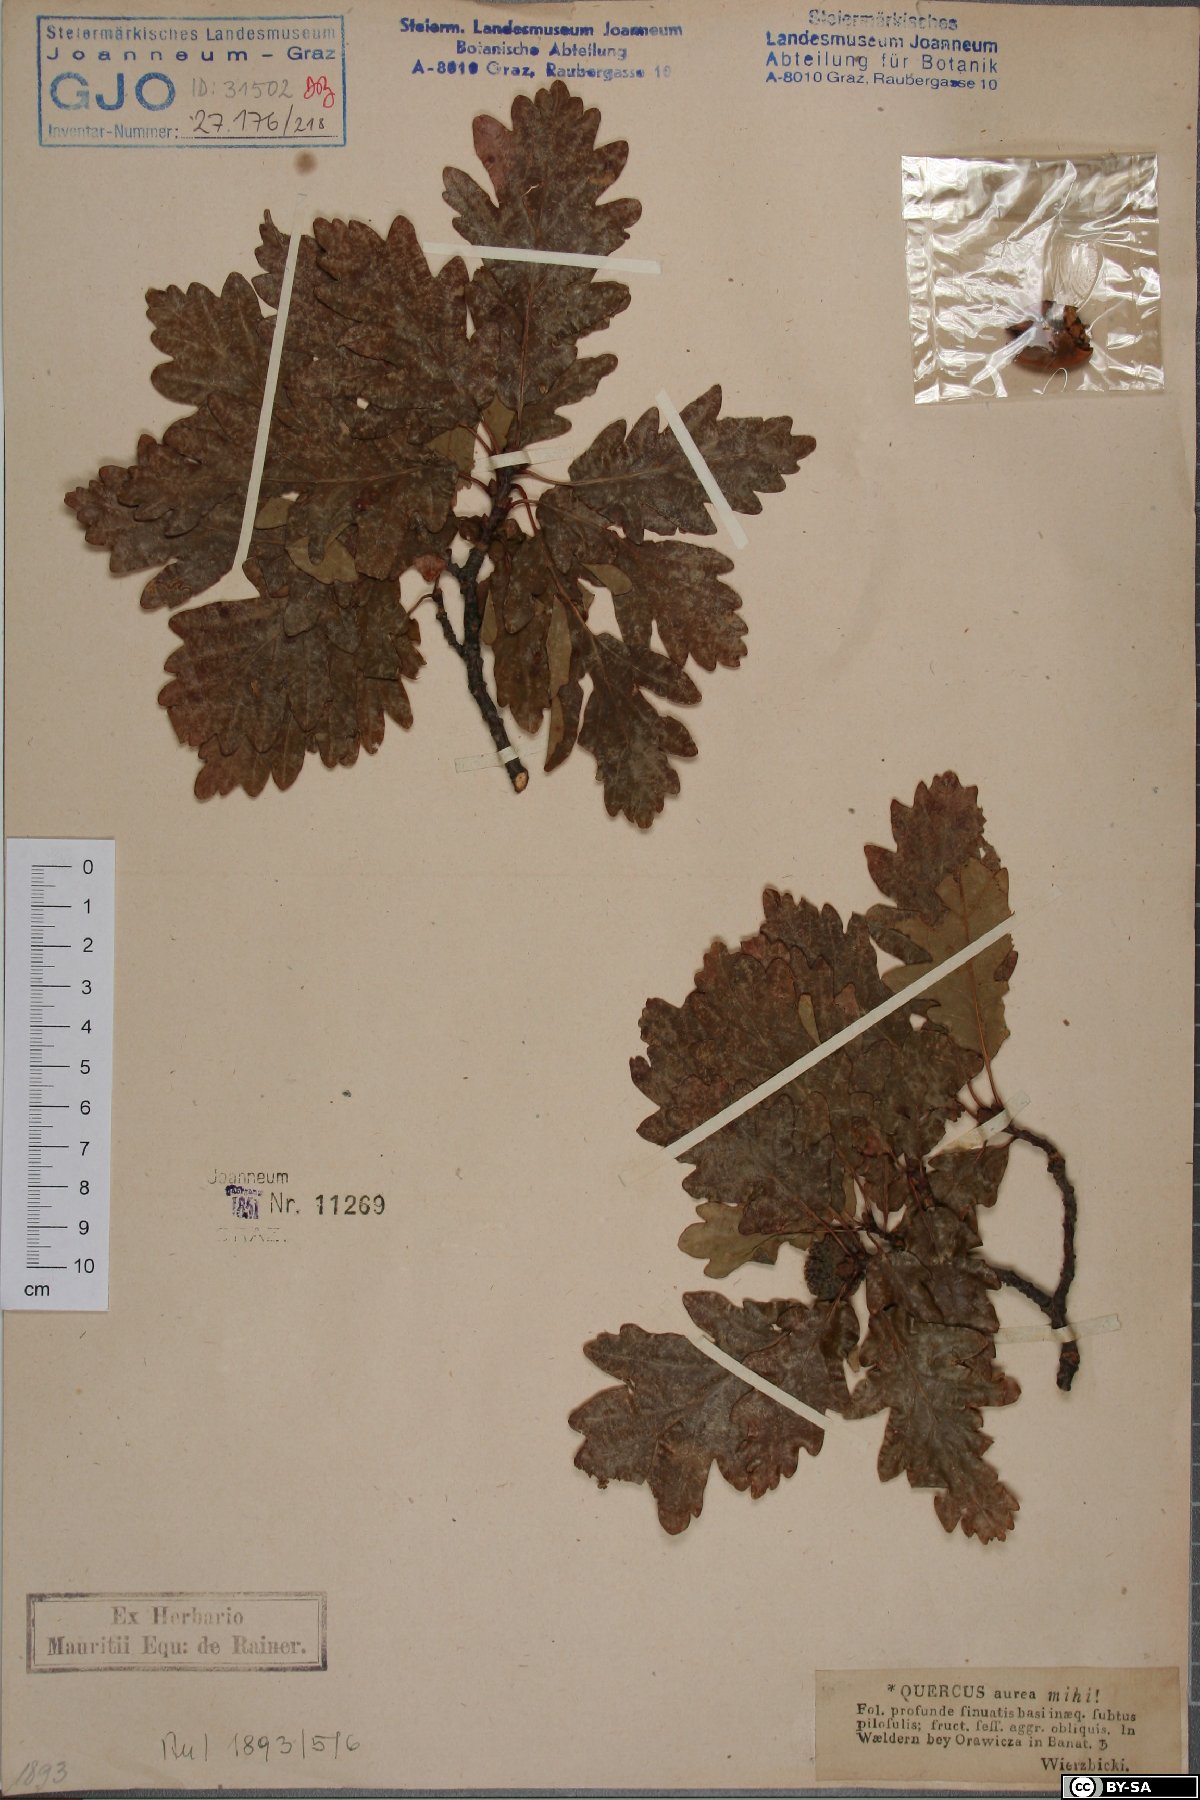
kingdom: Plantae
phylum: Tracheophyta
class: Magnoliopsida
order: Fagales
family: Fagaceae
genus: Quercus
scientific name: Quercus dalechampii
